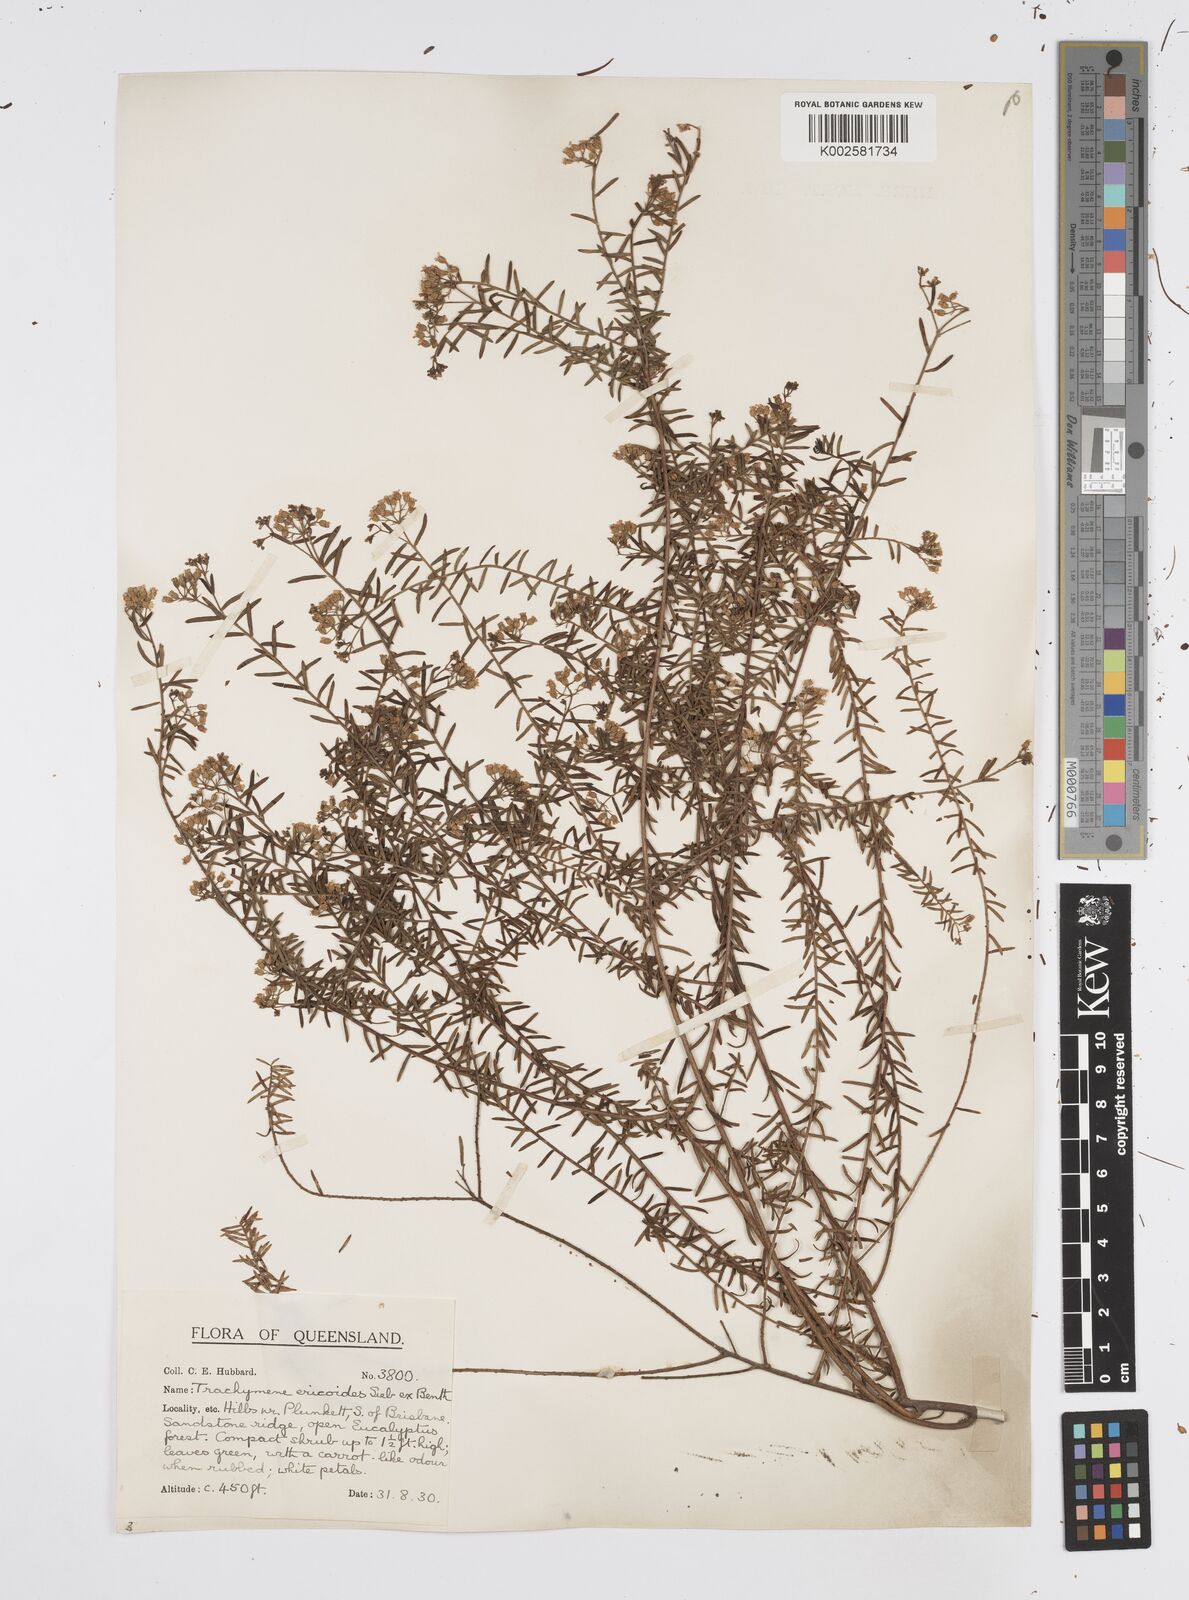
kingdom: Plantae
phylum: Tracheophyta
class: Magnoliopsida
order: Apiales
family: Apiaceae
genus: Platysace
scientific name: Platysace ericoides
